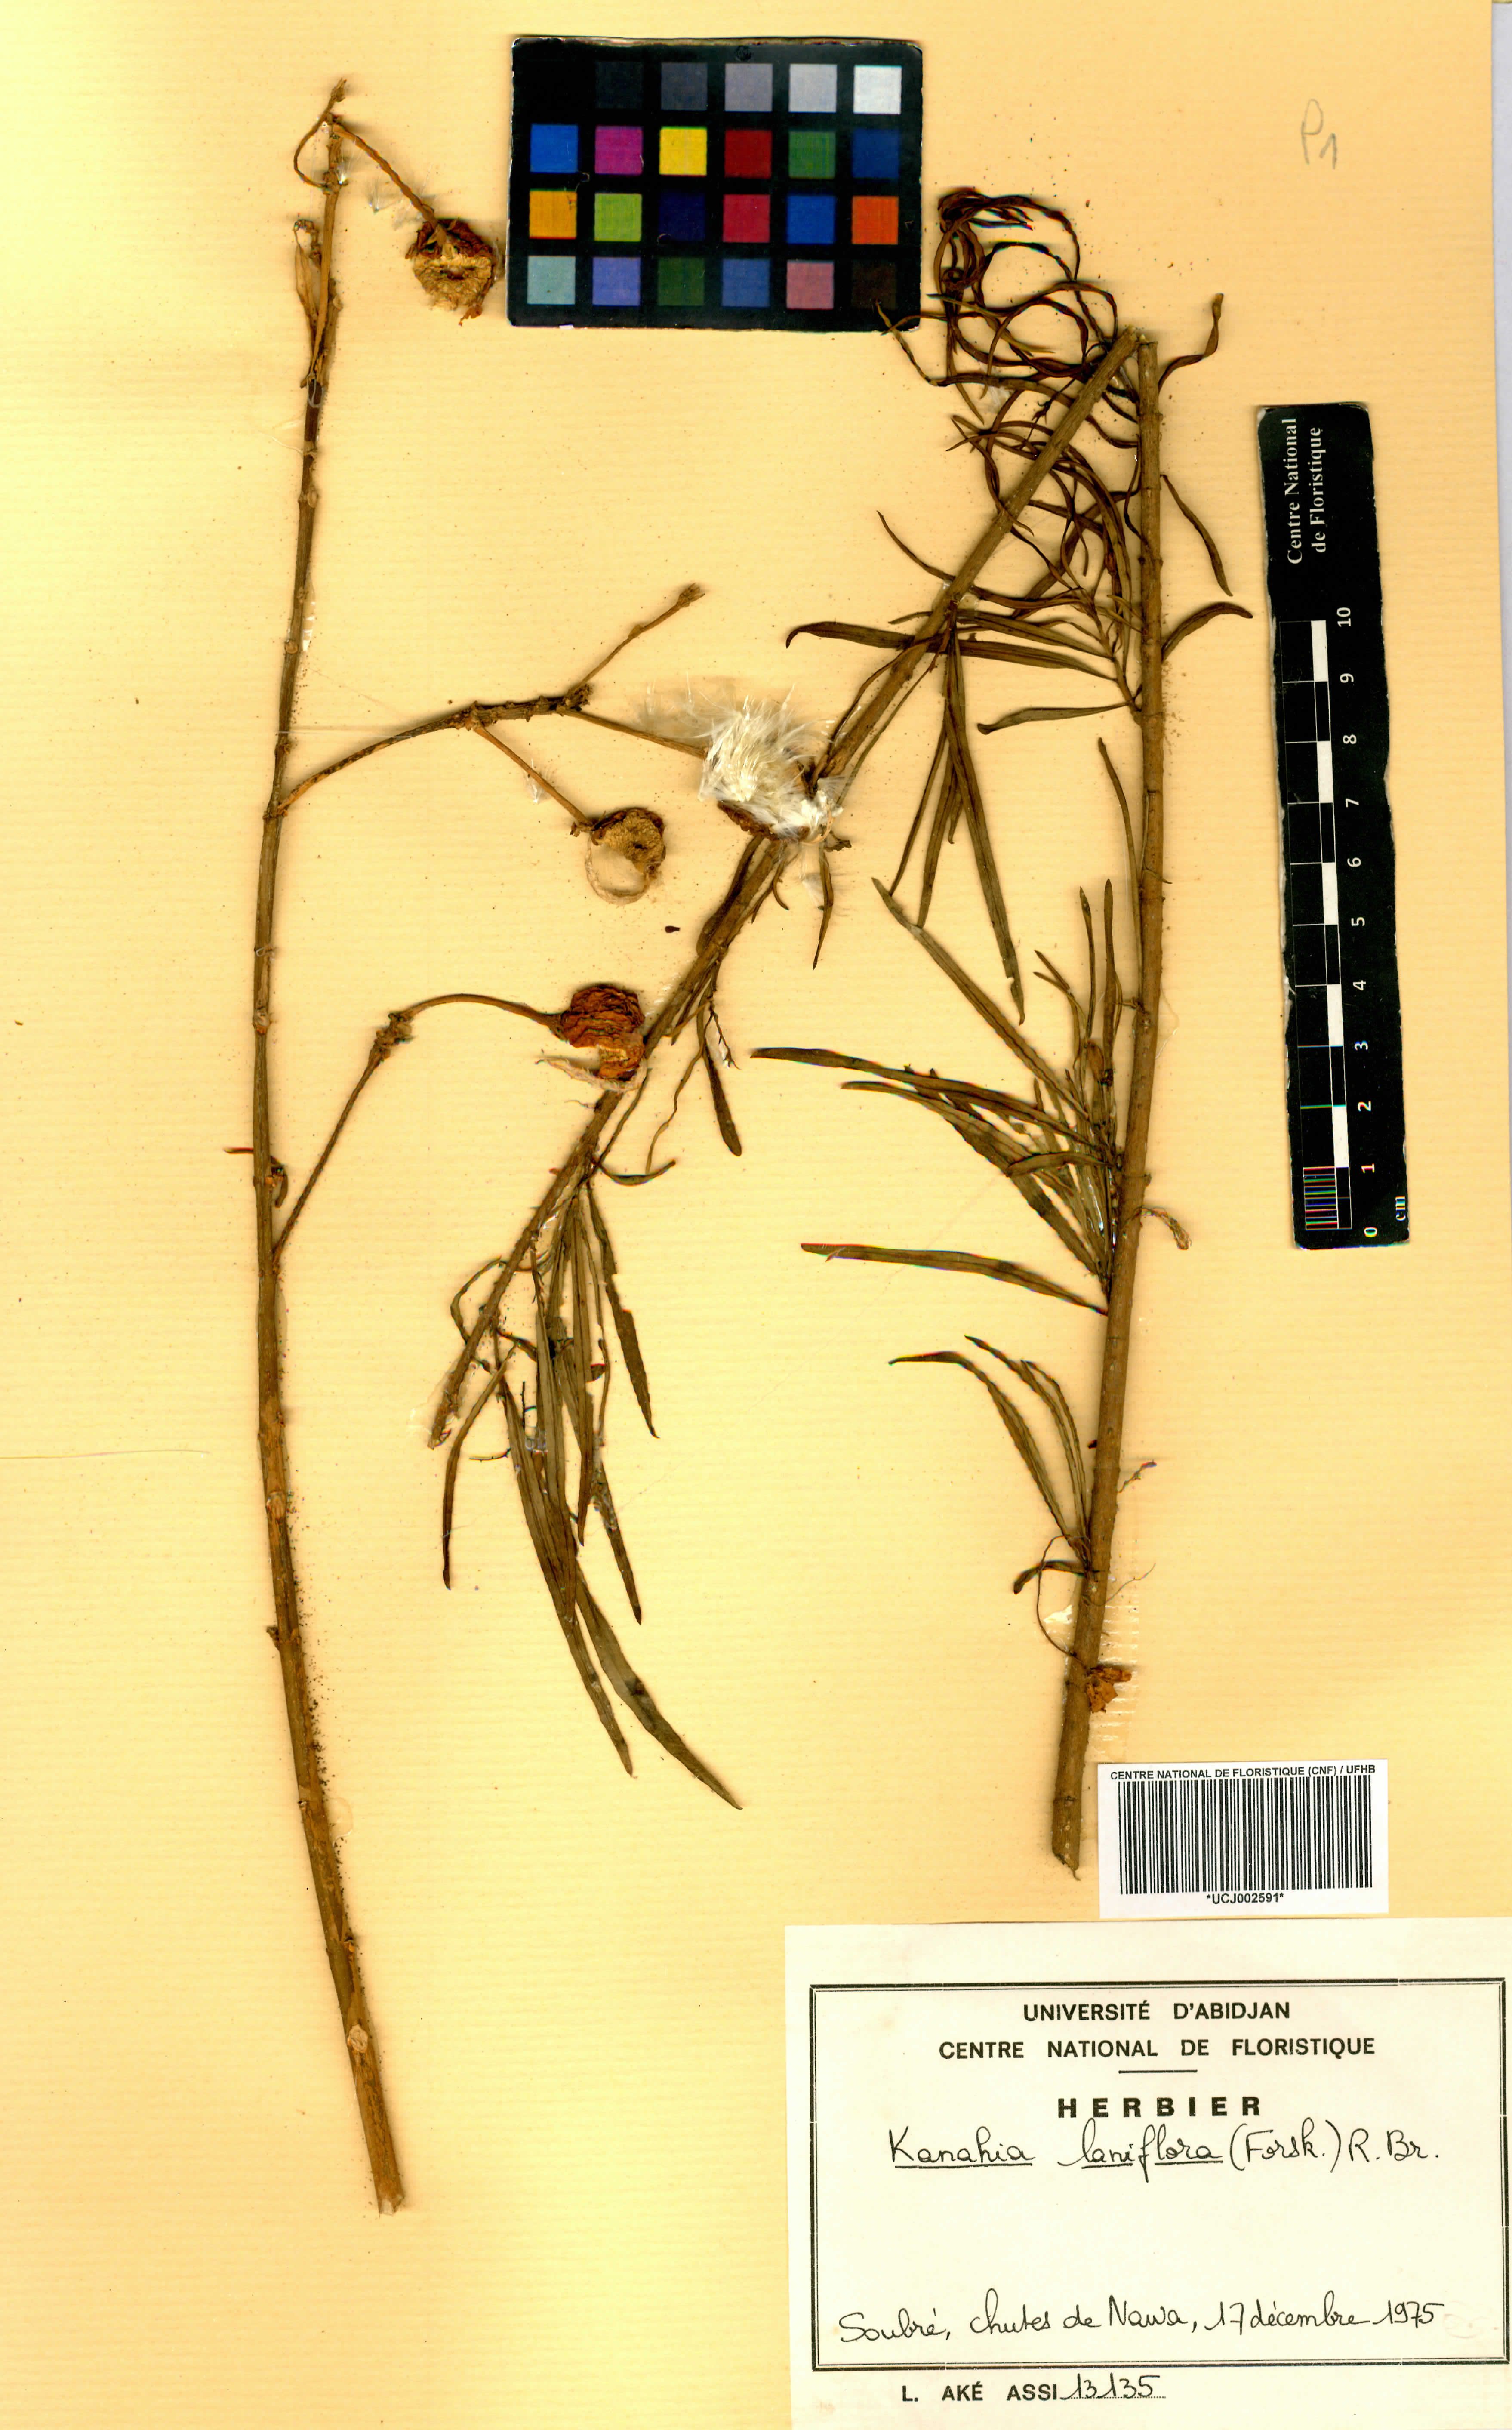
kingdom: Plantae
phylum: Tracheophyta
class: Magnoliopsida
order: Gentianales
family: Apocynaceae
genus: Kanahia
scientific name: Kanahia laniflora
